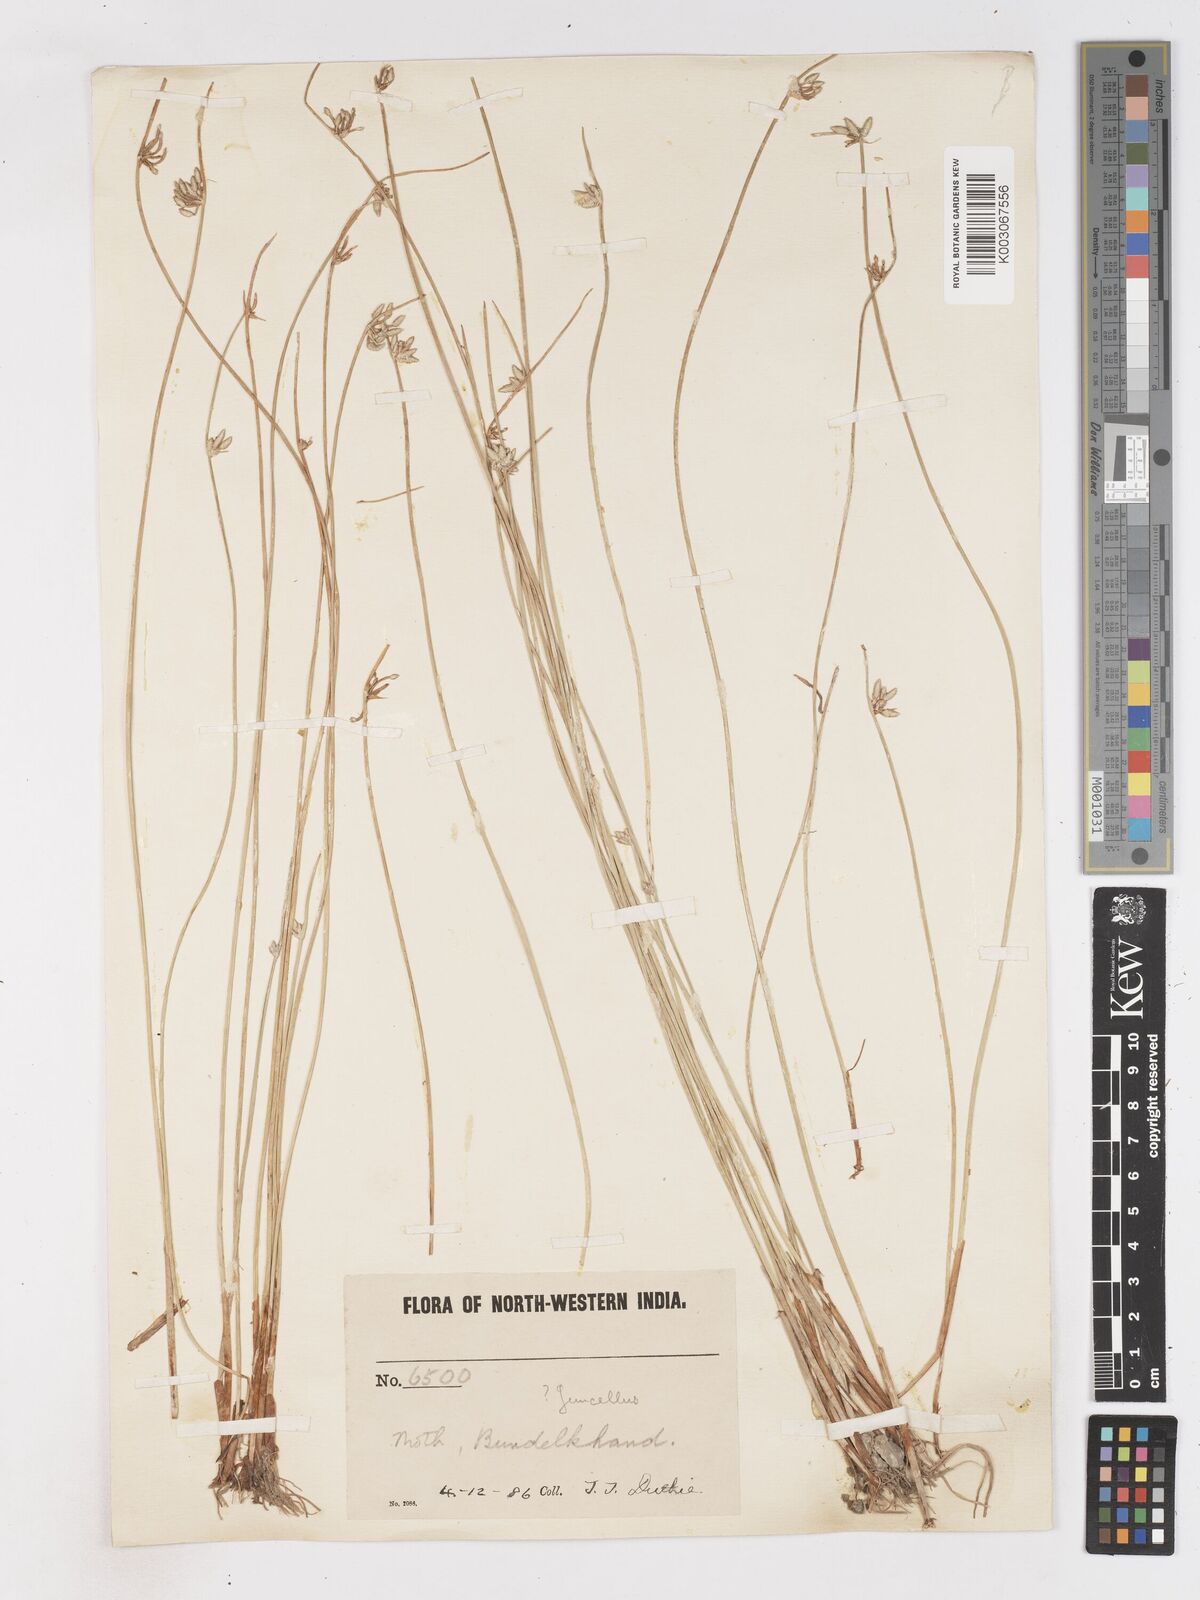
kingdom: Plantae
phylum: Tracheophyta
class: Liliopsida
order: Poales
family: Cyperaceae
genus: Cyperus
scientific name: Cyperus laevigatus
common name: Smooth flat sedge
